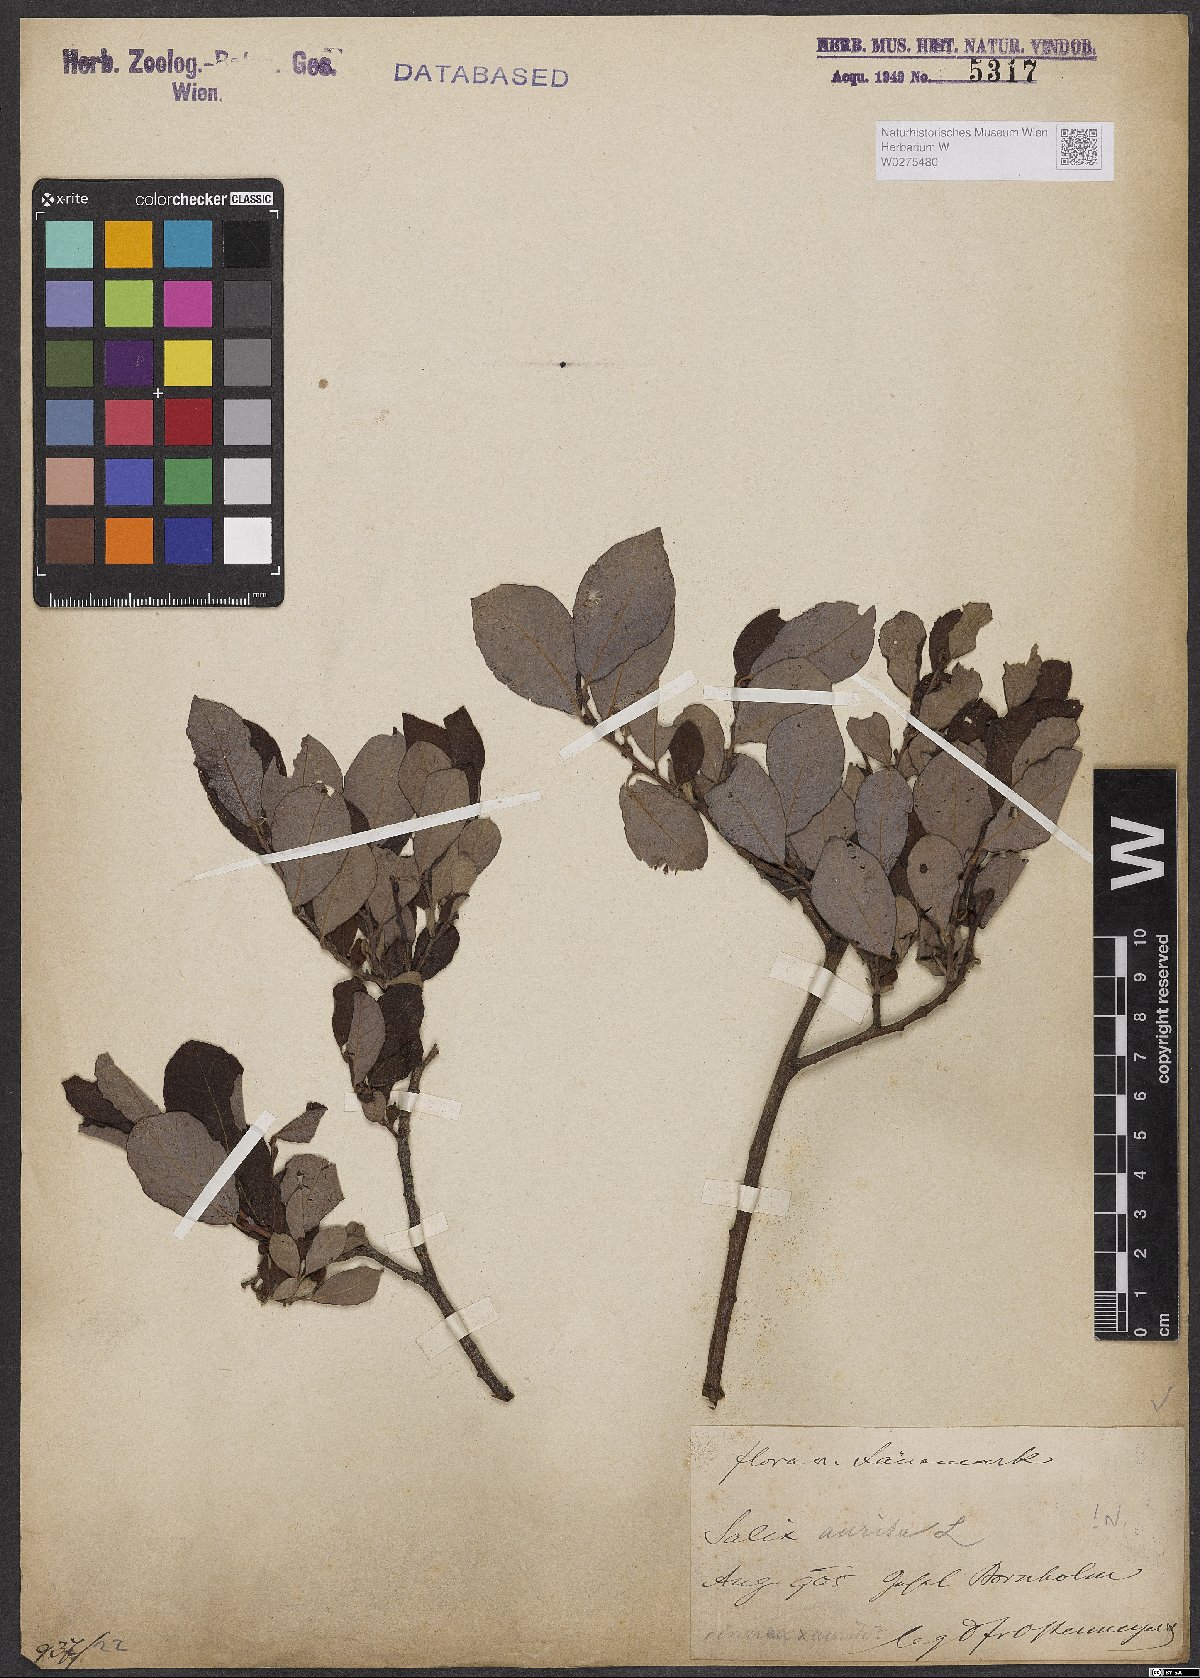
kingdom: Plantae
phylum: Tracheophyta
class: Magnoliopsida
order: Malpighiales
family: Salicaceae
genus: Salix
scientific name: Salix aurita
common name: Eared willow
